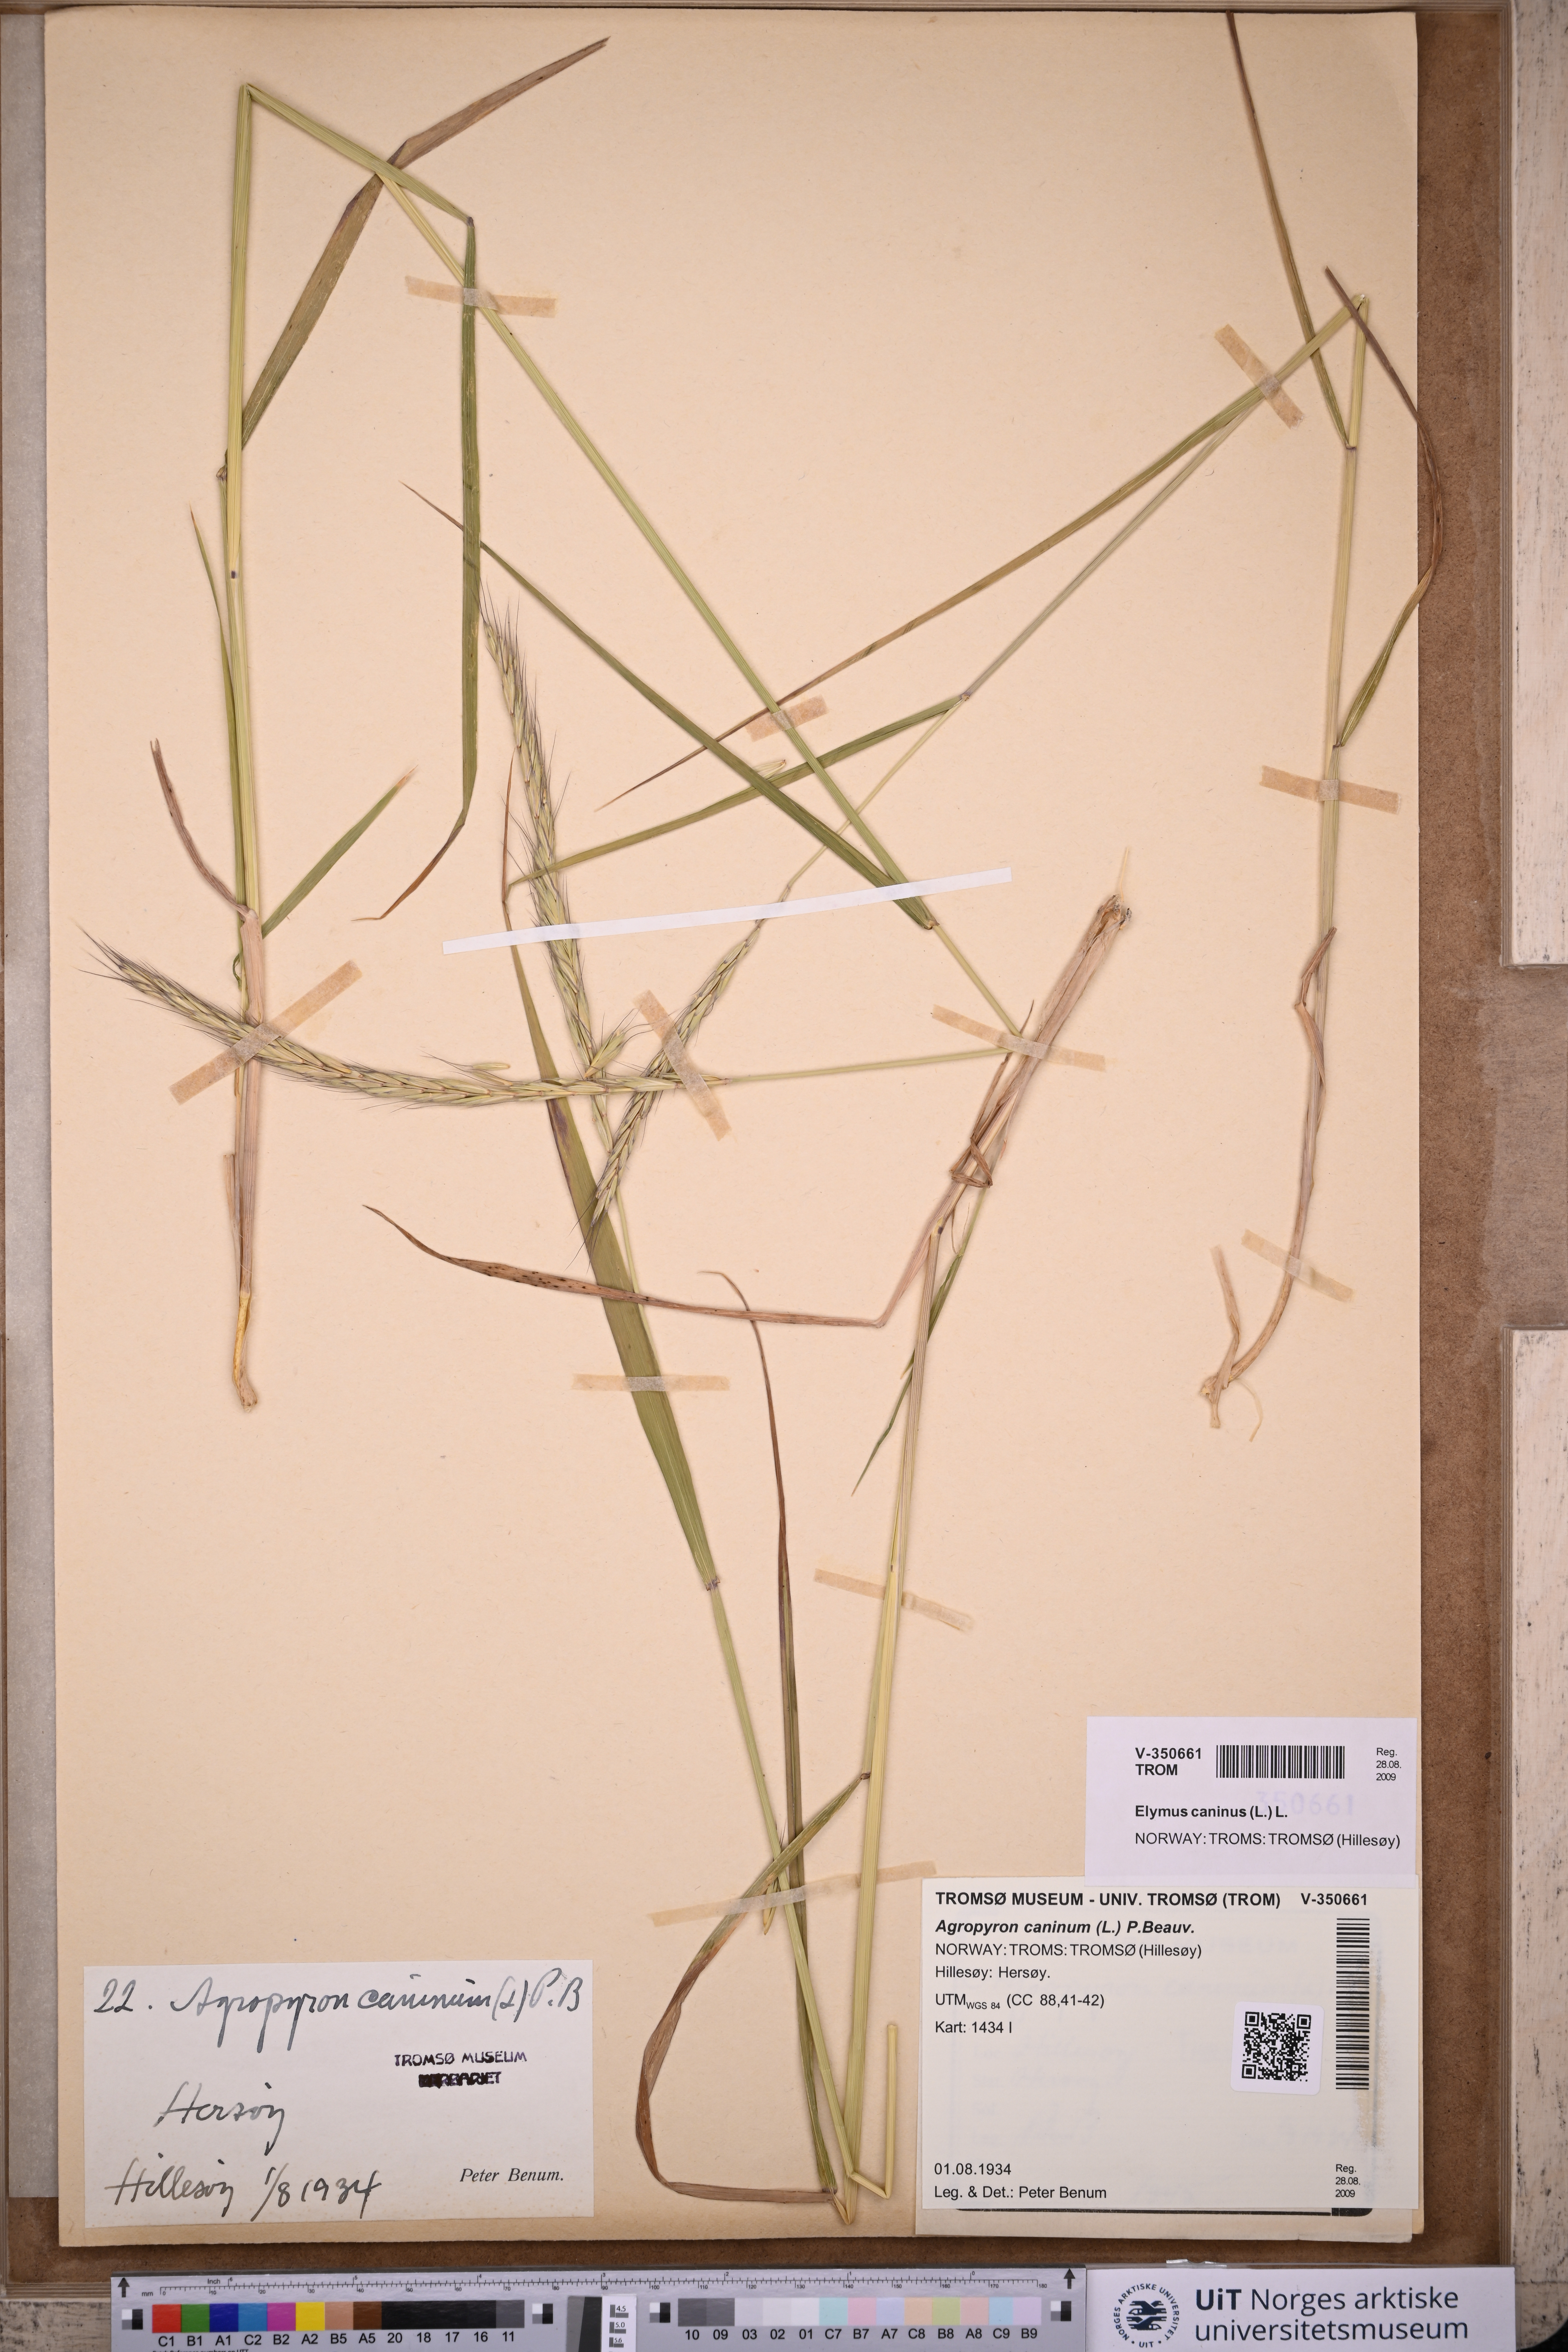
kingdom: Plantae
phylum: Tracheophyta
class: Liliopsida
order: Poales
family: Poaceae
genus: Elymus
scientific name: Elymus caninus
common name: Bearded couch
